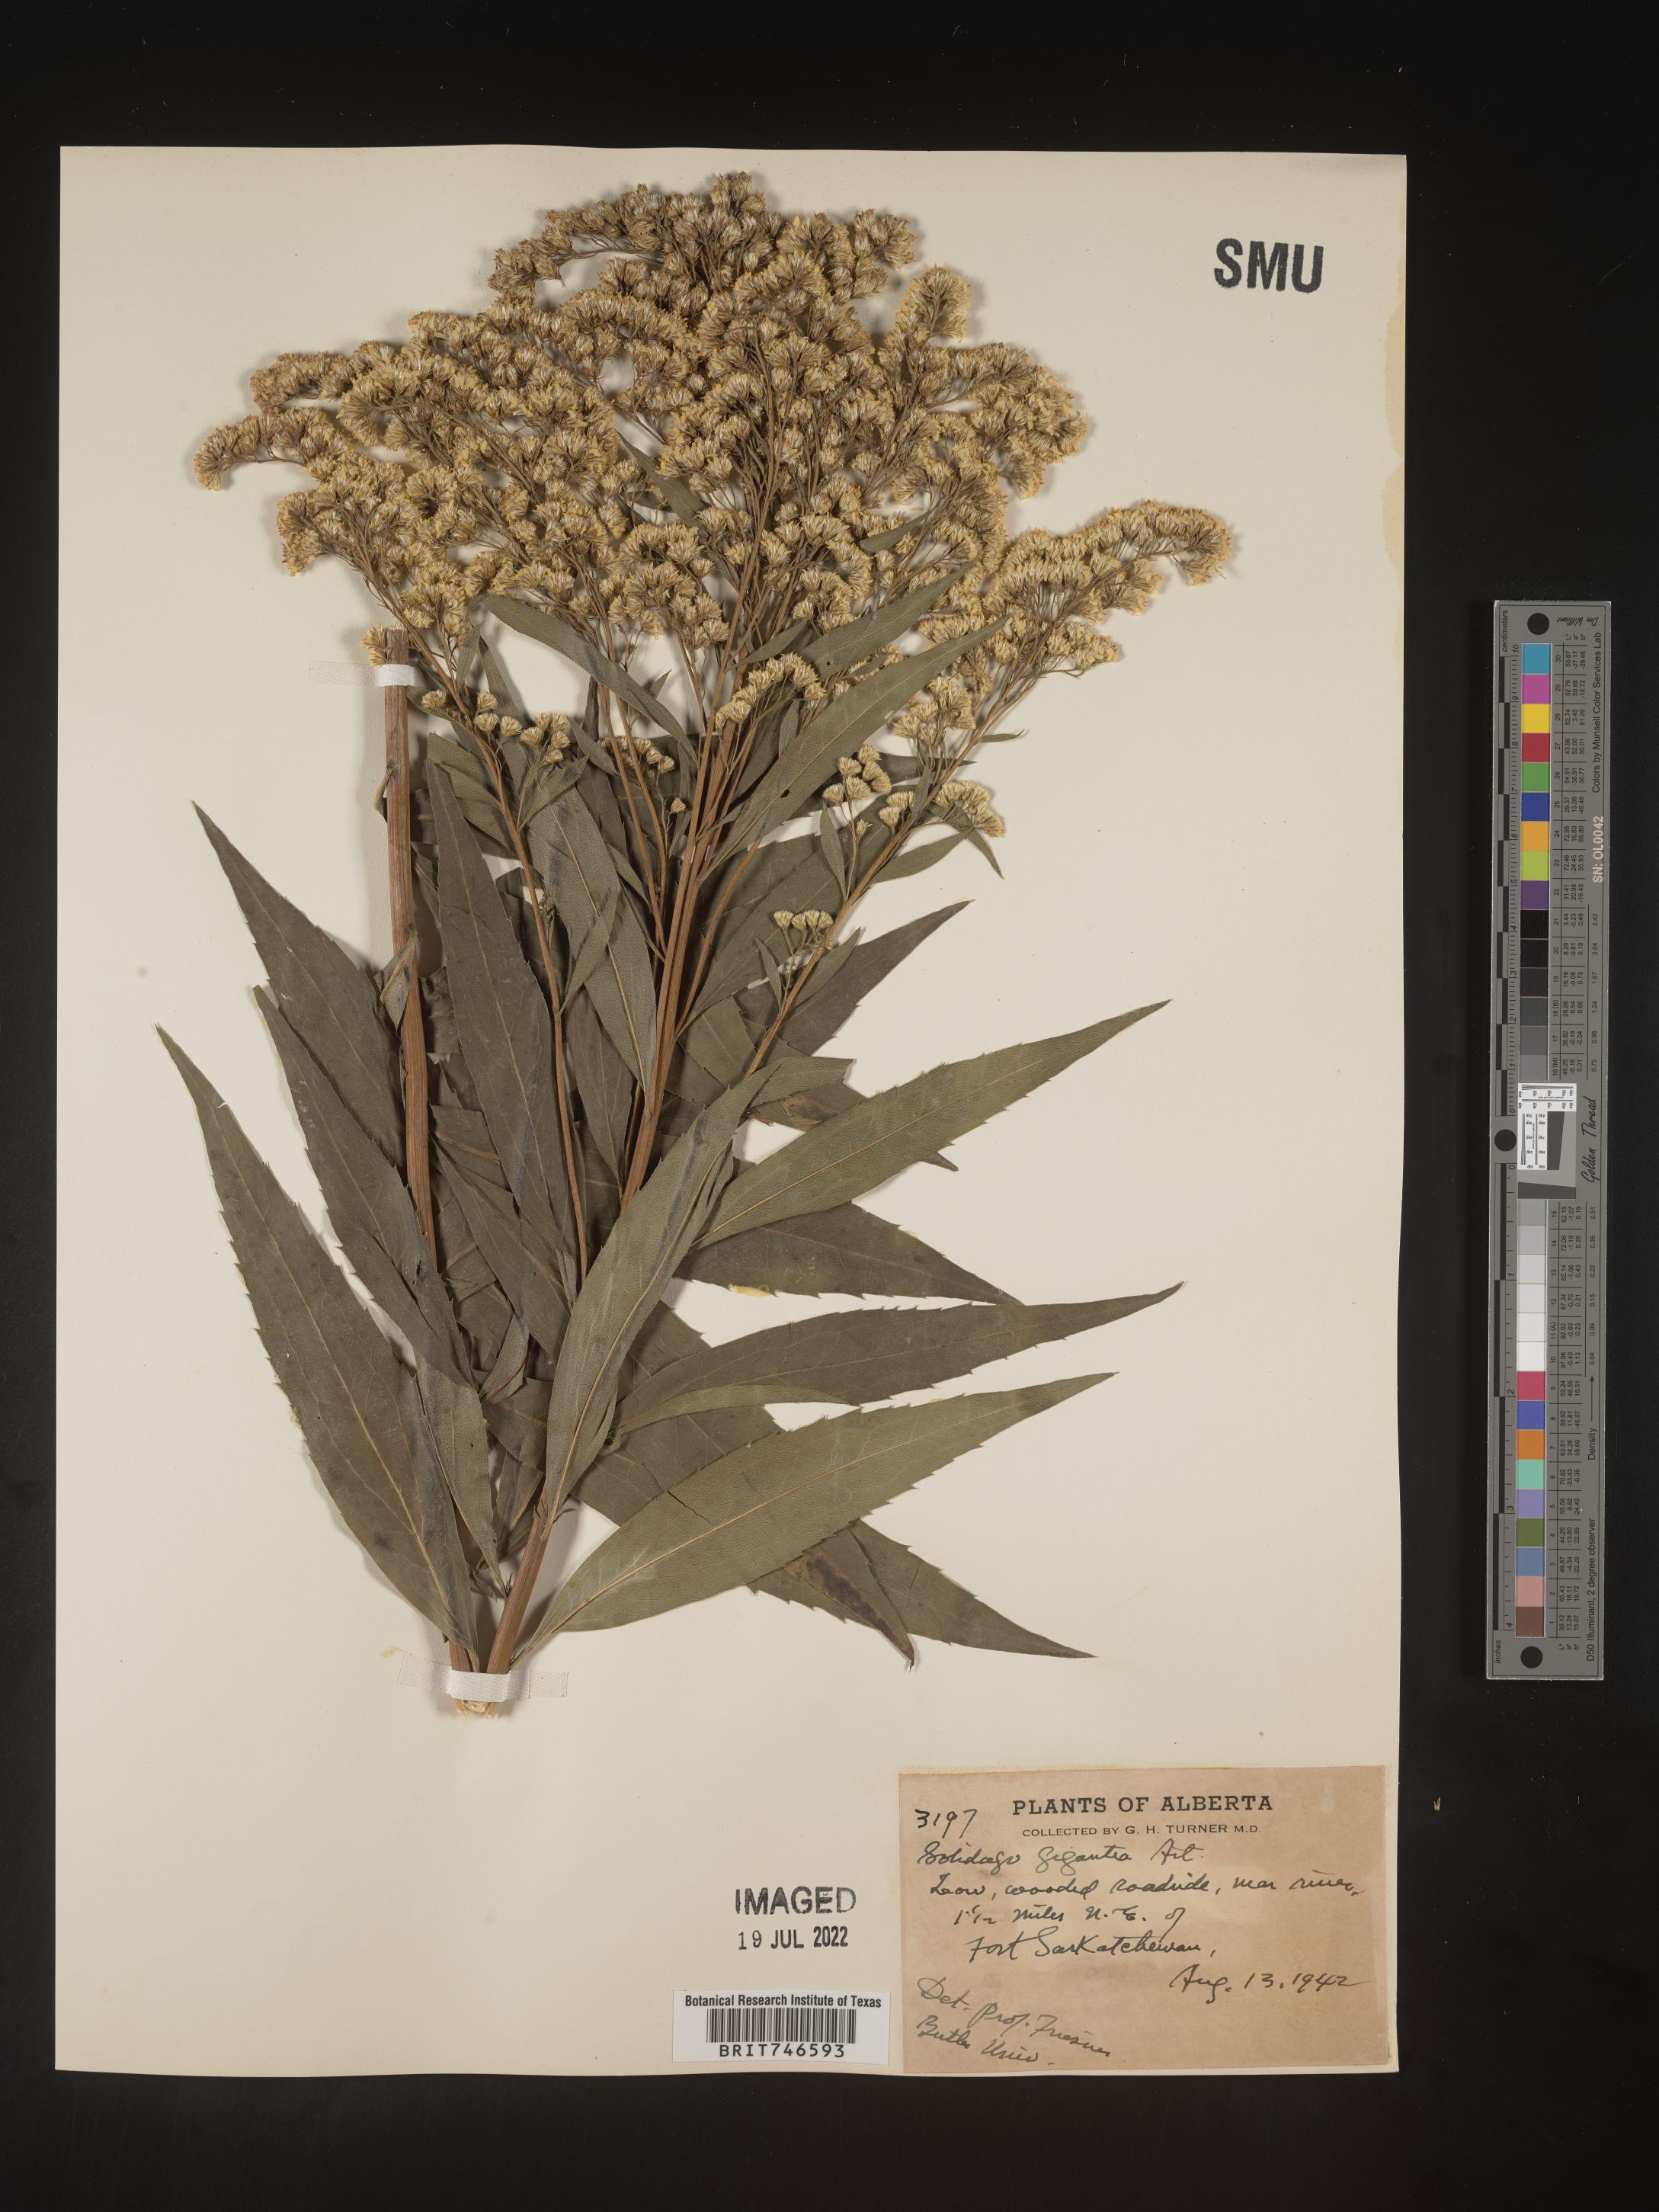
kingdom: Plantae
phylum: Tracheophyta
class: Magnoliopsida
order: Asterales
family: Asteraceae
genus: Solidago
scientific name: Solidago gigantea
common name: Giant goldenrod
